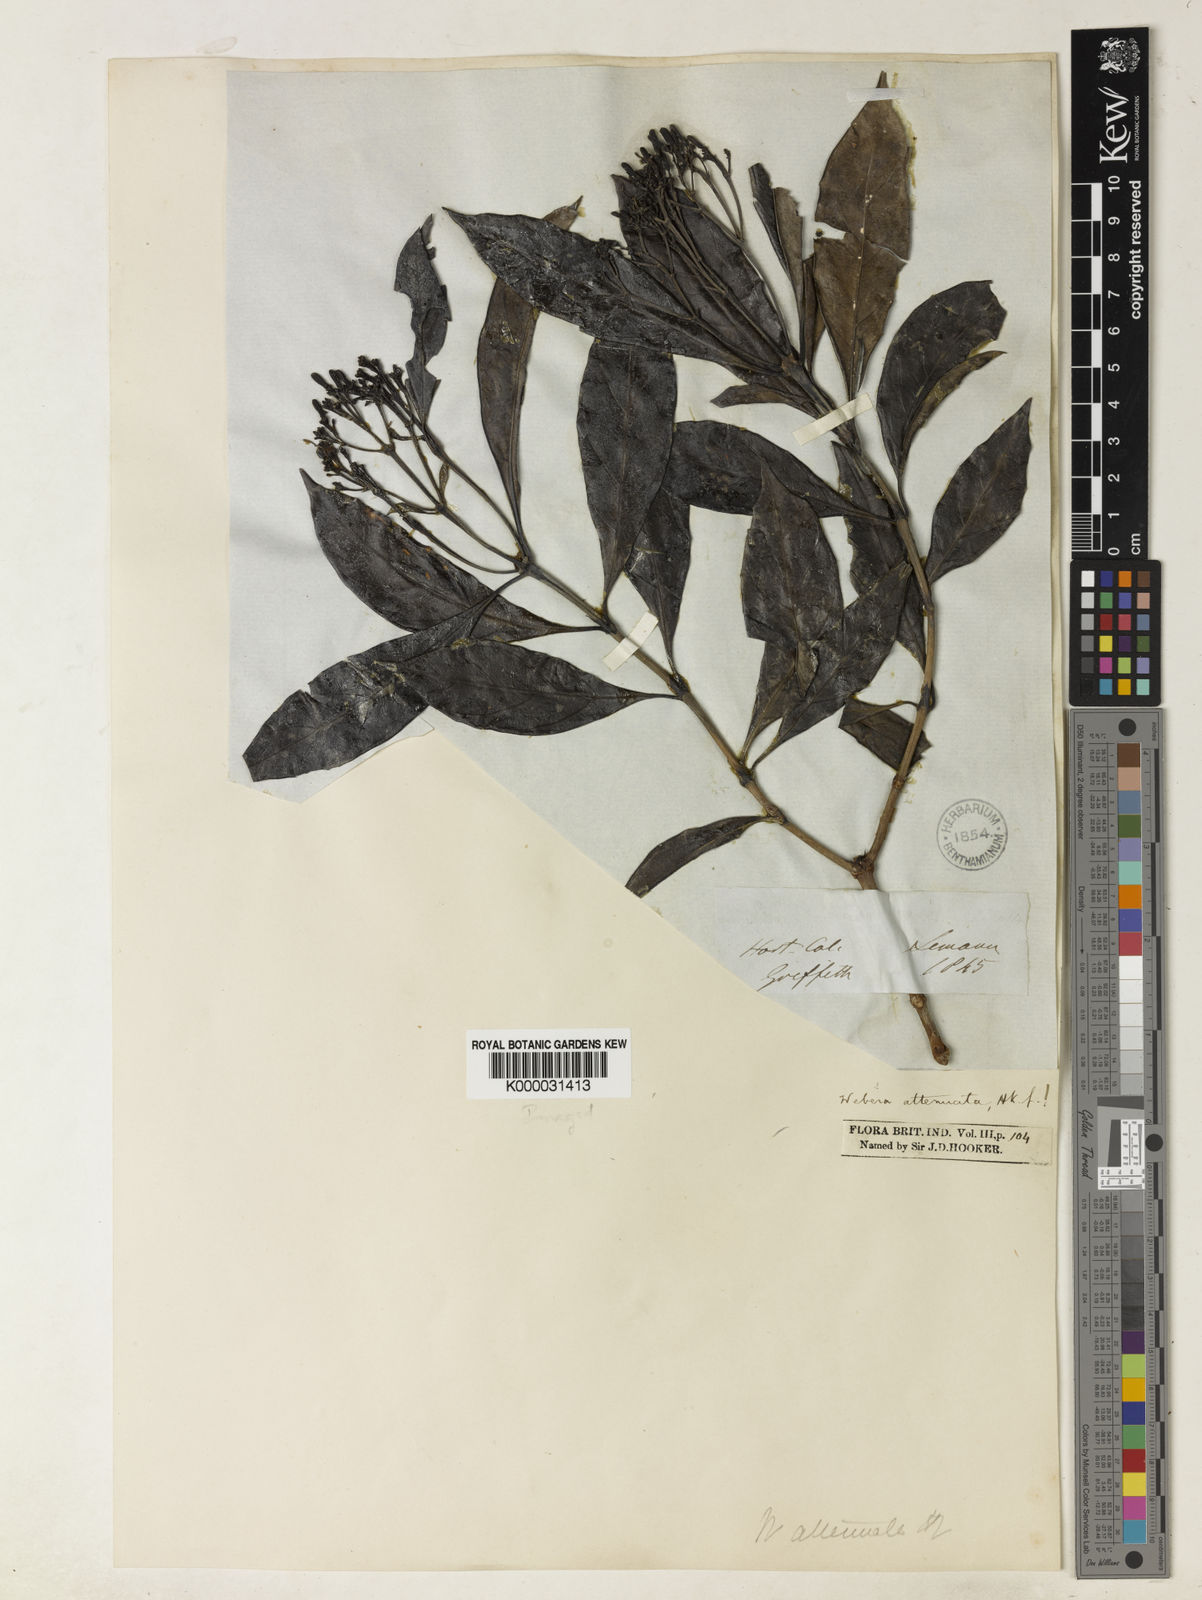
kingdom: Plantae
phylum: Tracheophyta
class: Magnoliopsida
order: Gentianales
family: Rubiaceae
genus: Tarenna
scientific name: Tarenna
